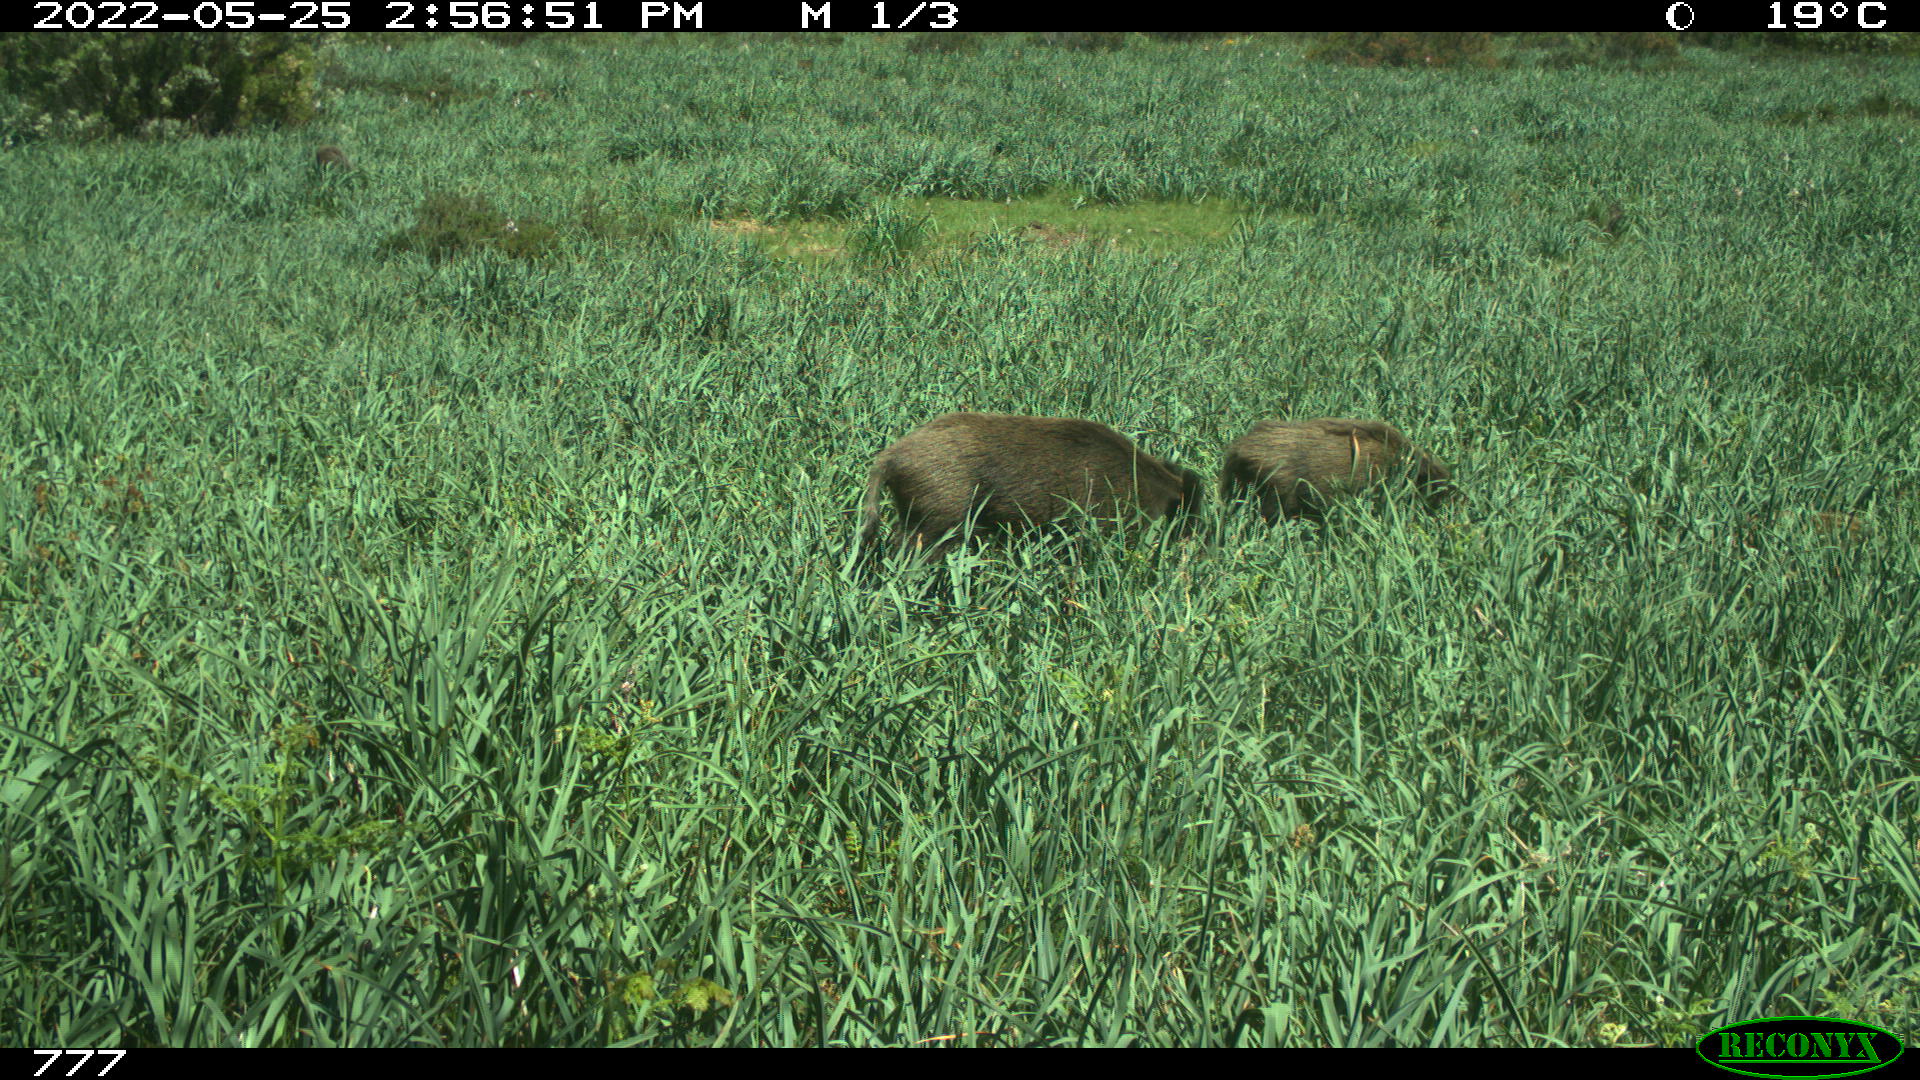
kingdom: Animalia
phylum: Chordata
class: Mammalia
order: Artiodactyla
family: Suidae
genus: Sus
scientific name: Sus scrofa
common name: Wild boar
